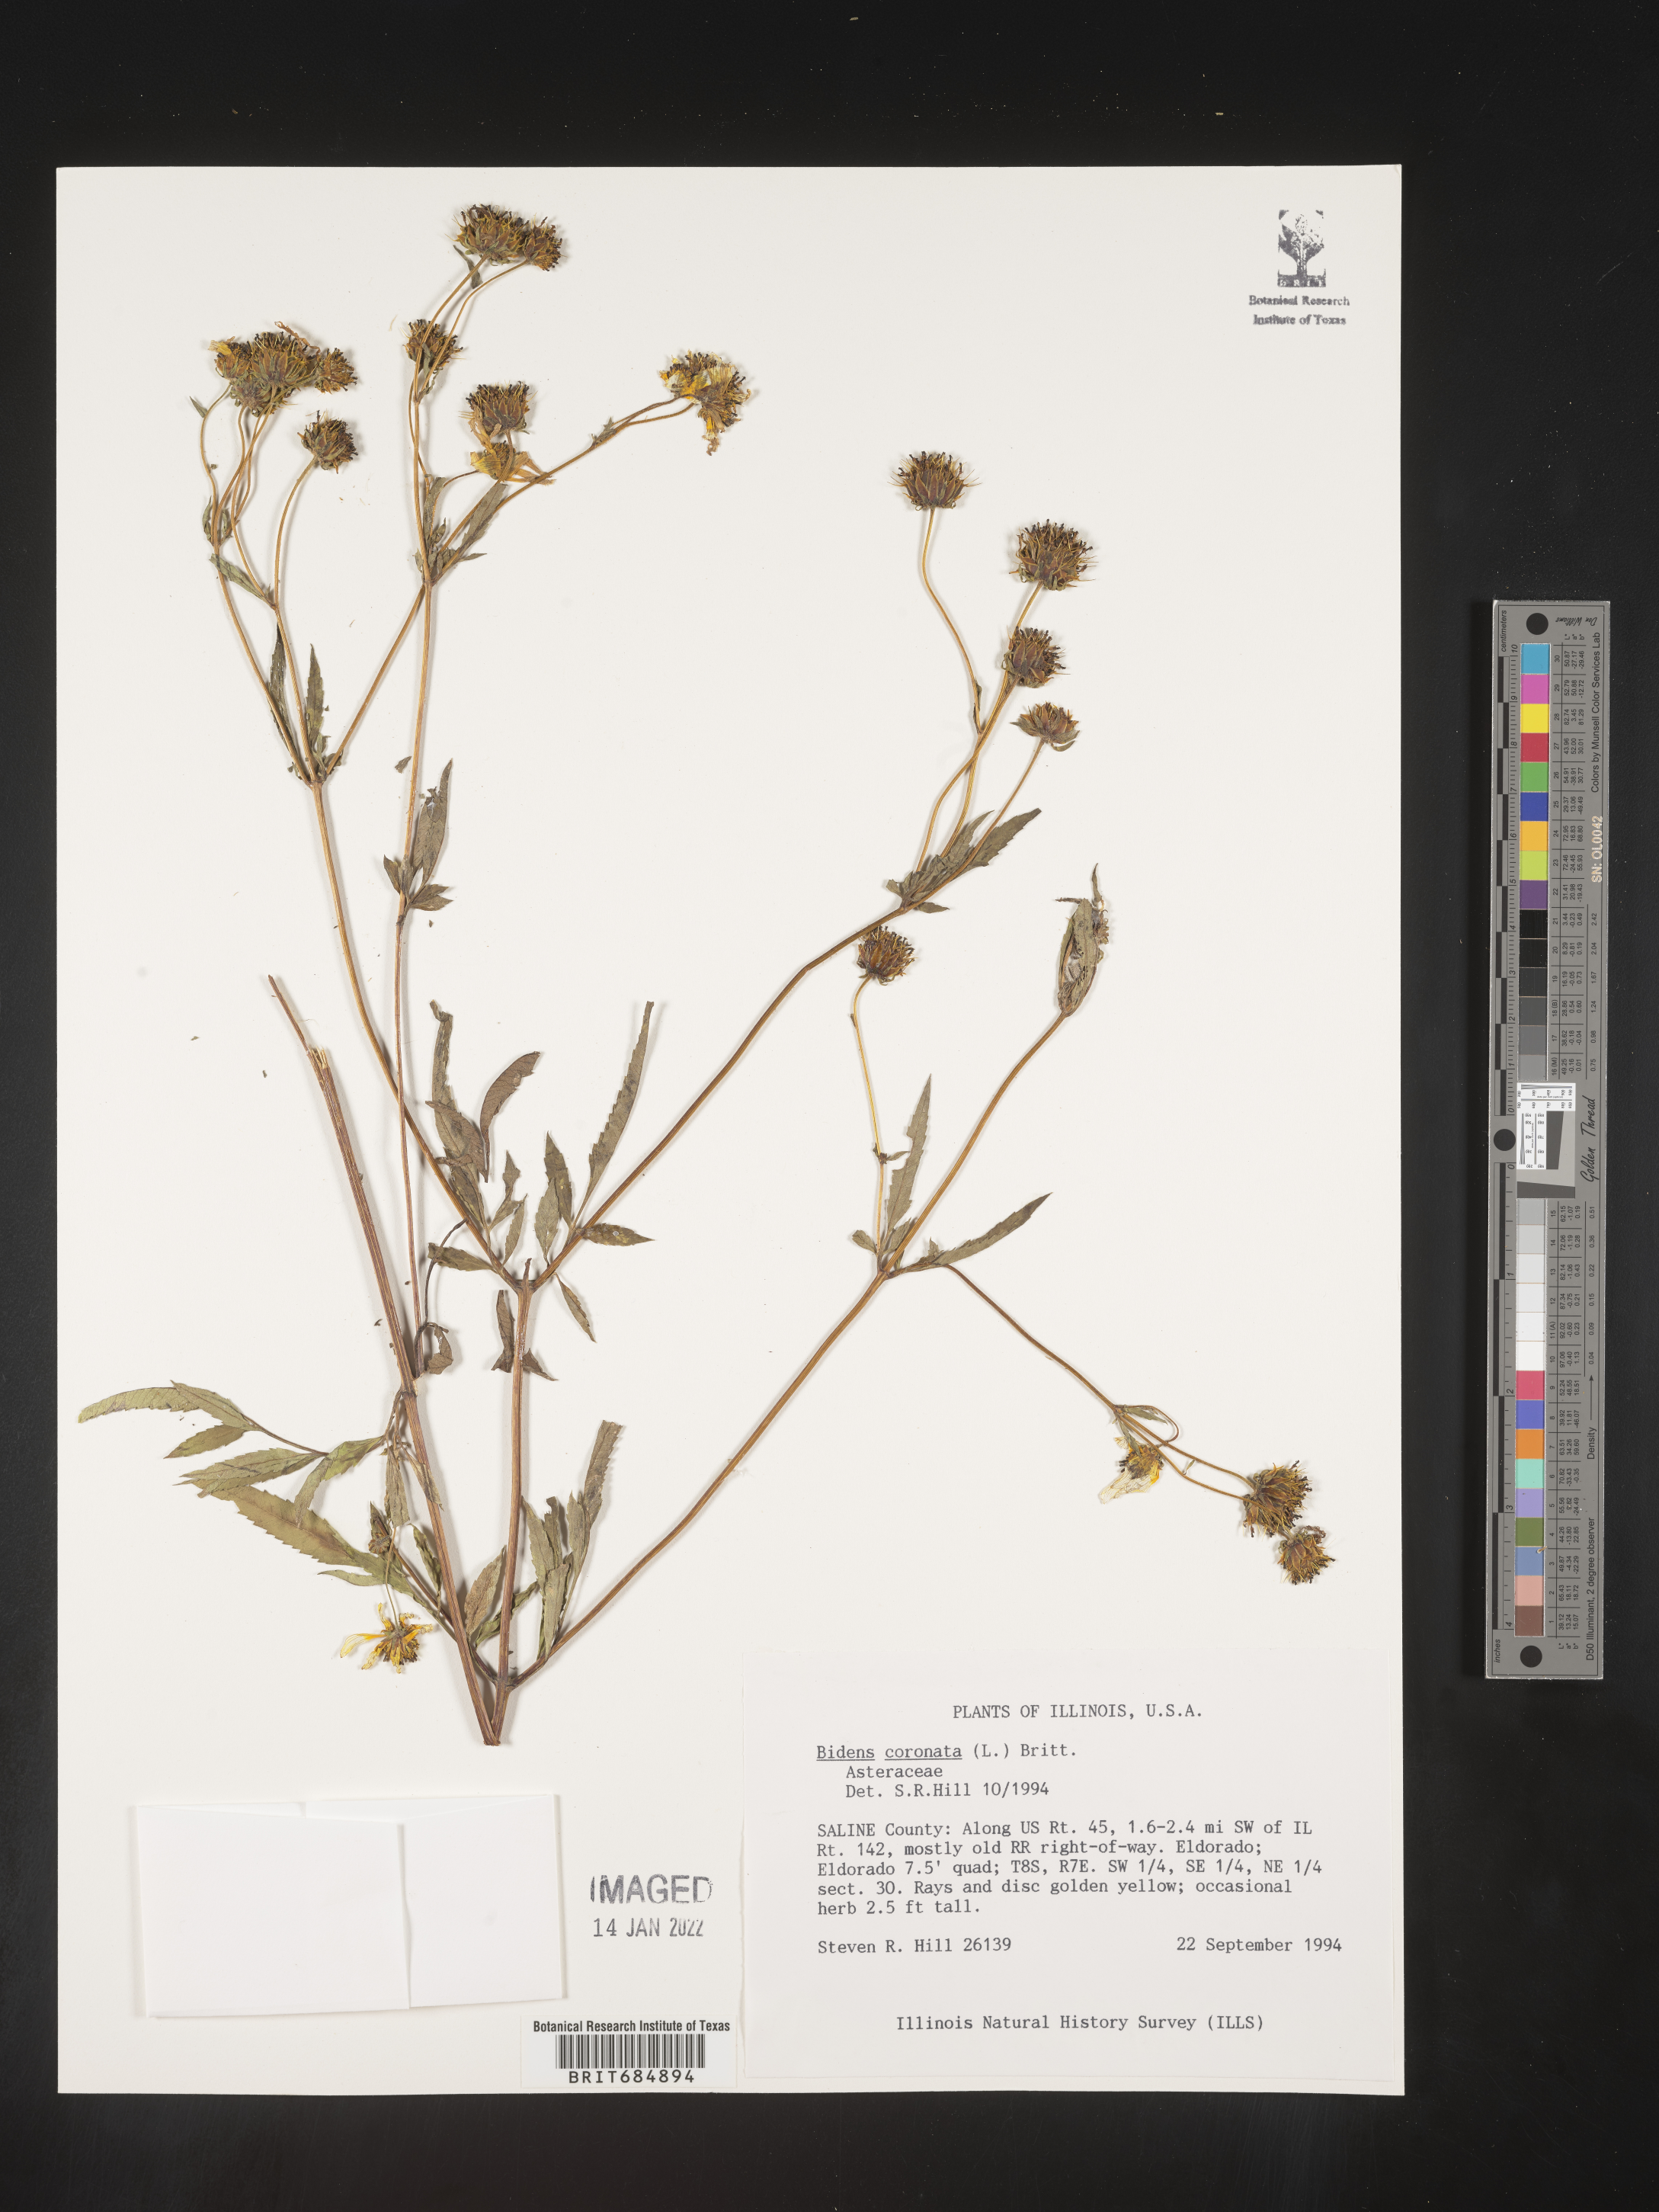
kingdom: Plantae
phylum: Tracheophyta
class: Magnoliopsida
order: Asterales
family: Asteraceae
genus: Bidens
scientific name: Bidens trichosperma
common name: Crowned beggarticks
